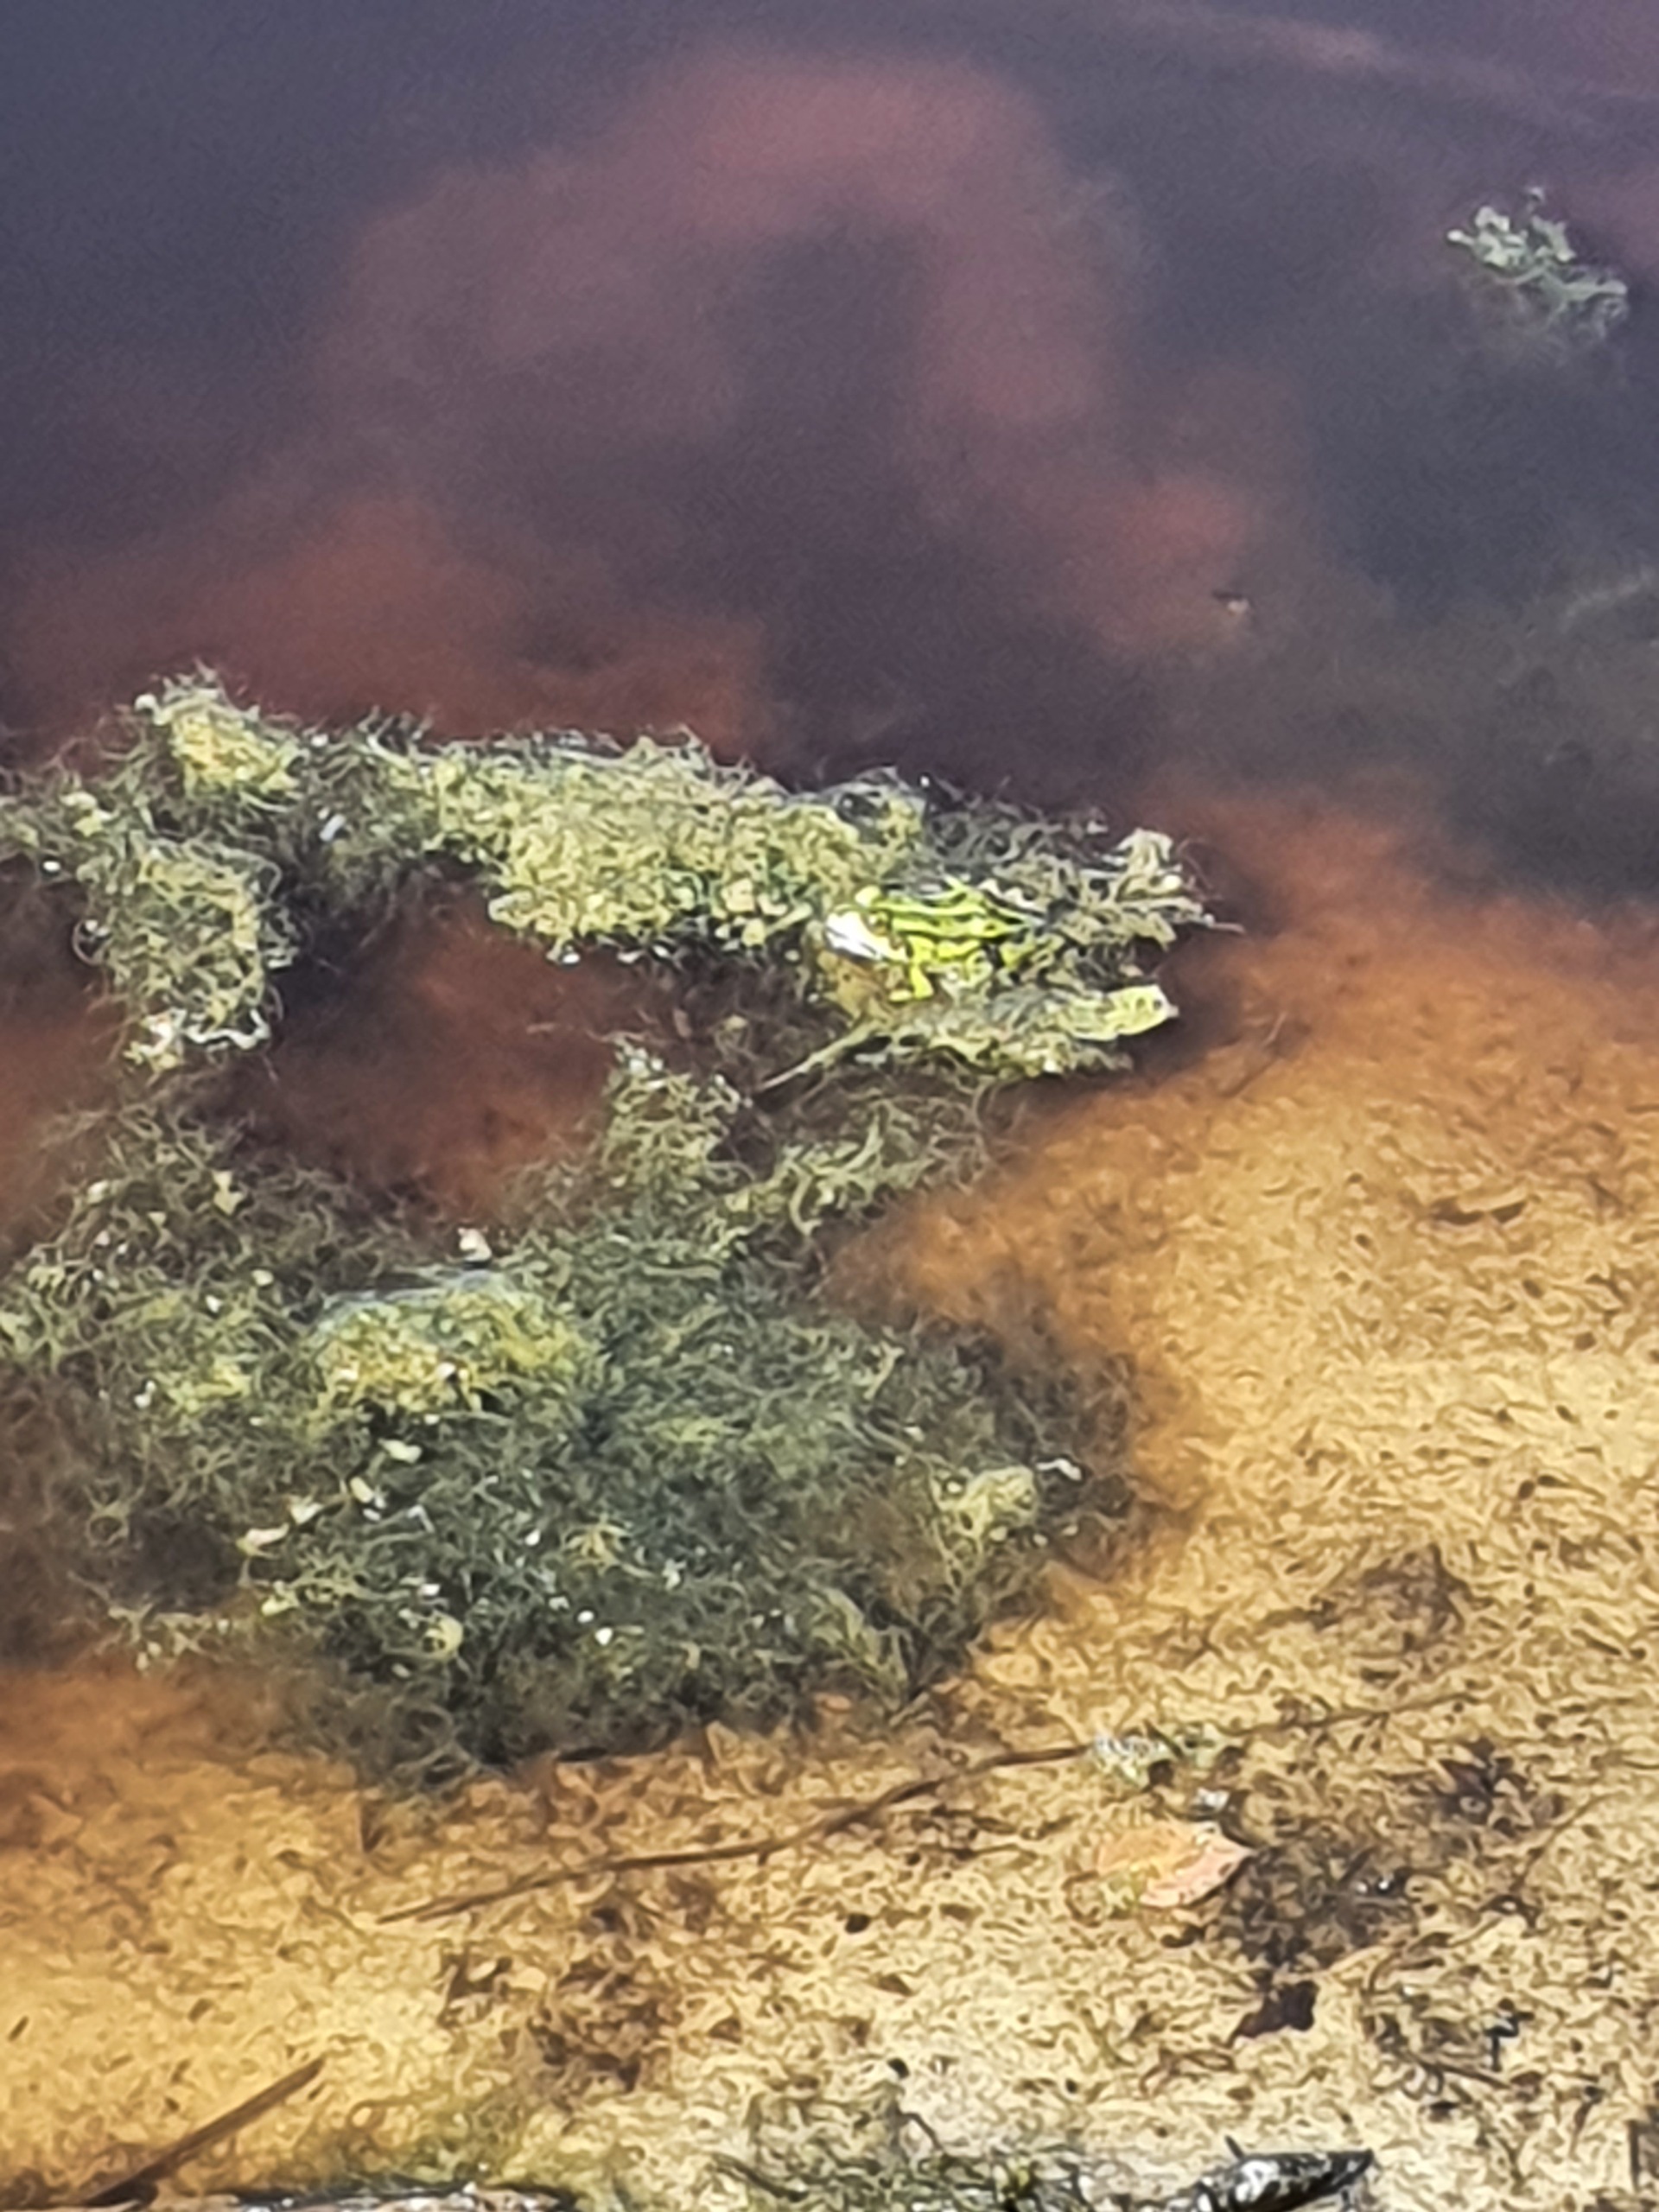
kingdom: Animalia
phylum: Chordata
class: Amphibia
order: Anura
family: Ranidae
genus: Pelophylax
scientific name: Pelophylax lessonae
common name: Grøn frø
